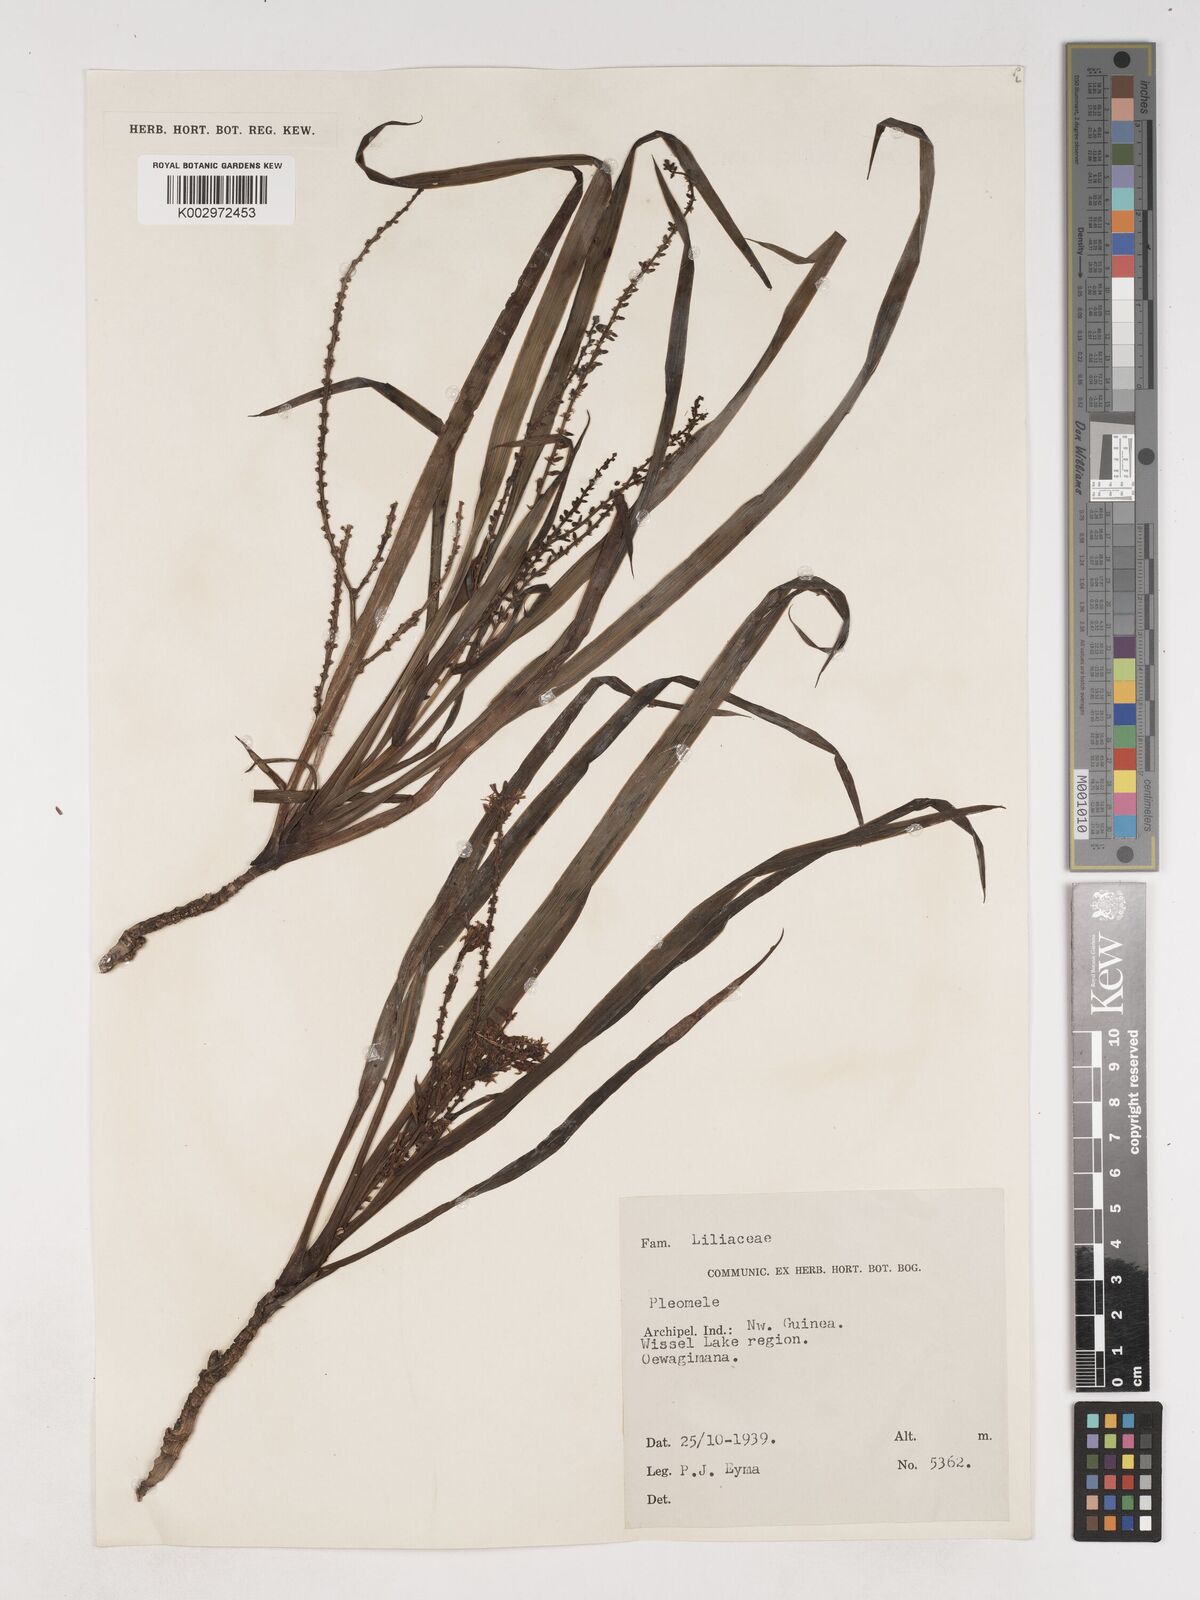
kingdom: Plantae
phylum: Tracheophyta
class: Liliopsida
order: Asparagales
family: Asparagaceae
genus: Cordyline
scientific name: Cordyline angustissima
